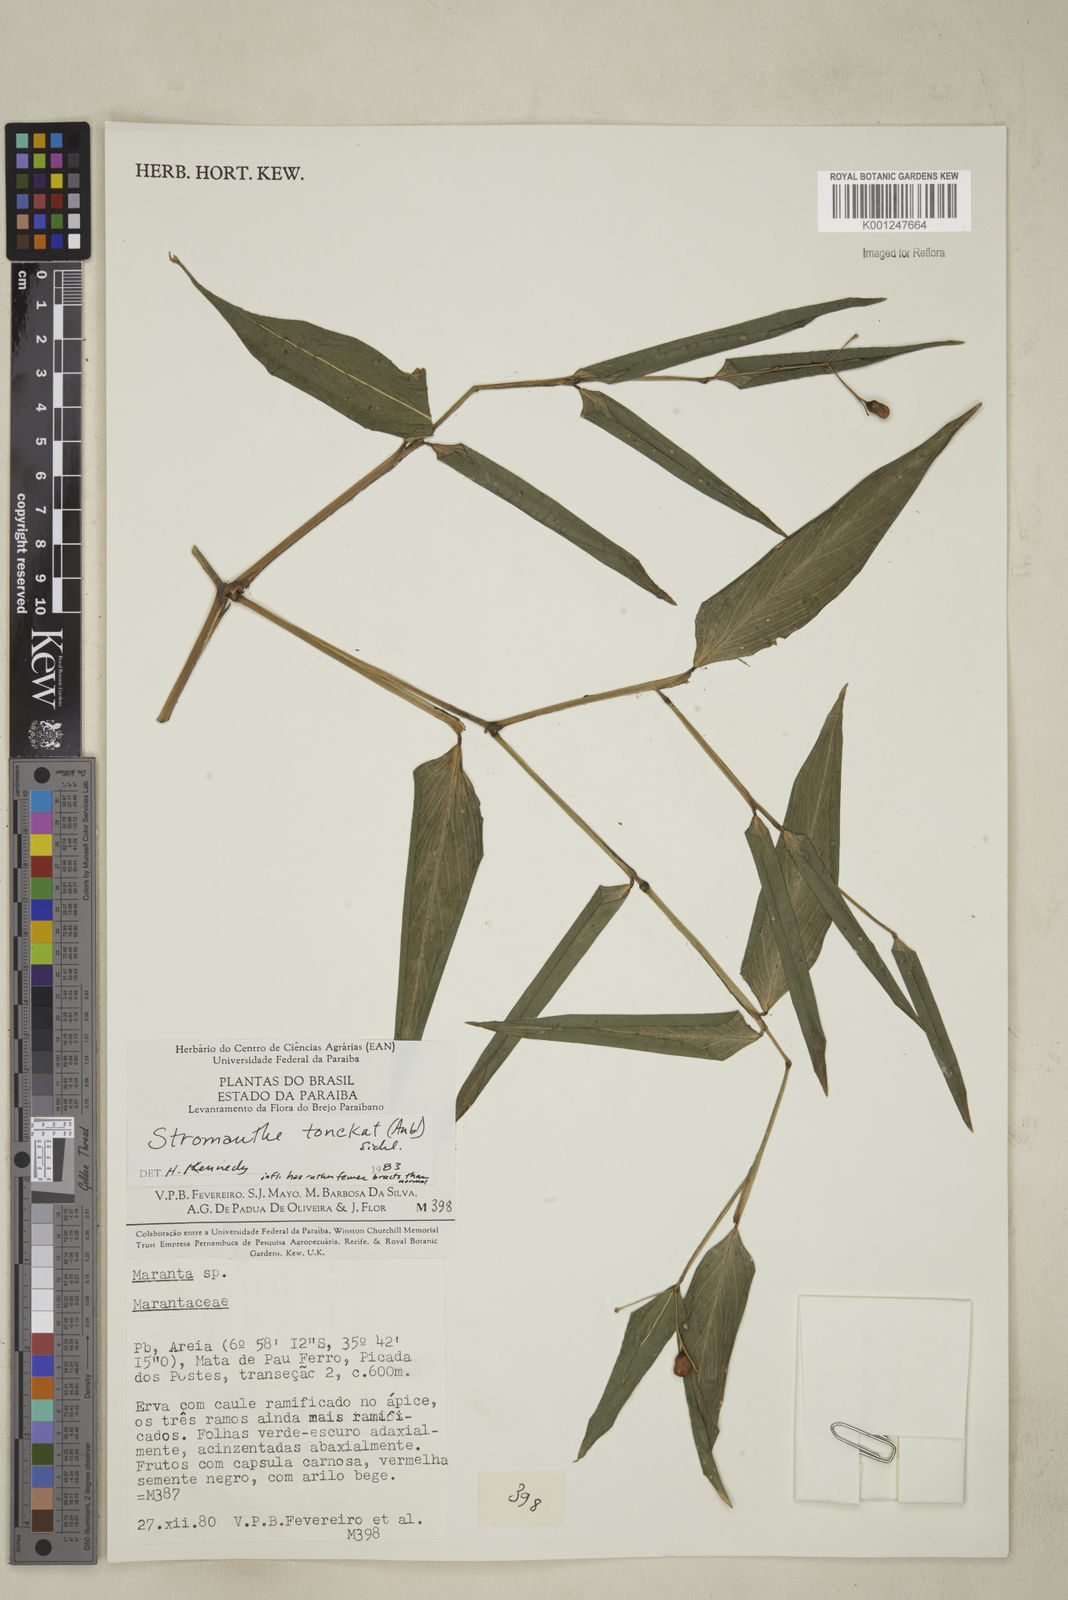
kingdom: Plantae
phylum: Tracheophyta
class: Liliopsida
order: Zingiberales
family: Marantaceae
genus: Stromanthe
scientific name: Stromanthe tonckat
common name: Stromanthe
